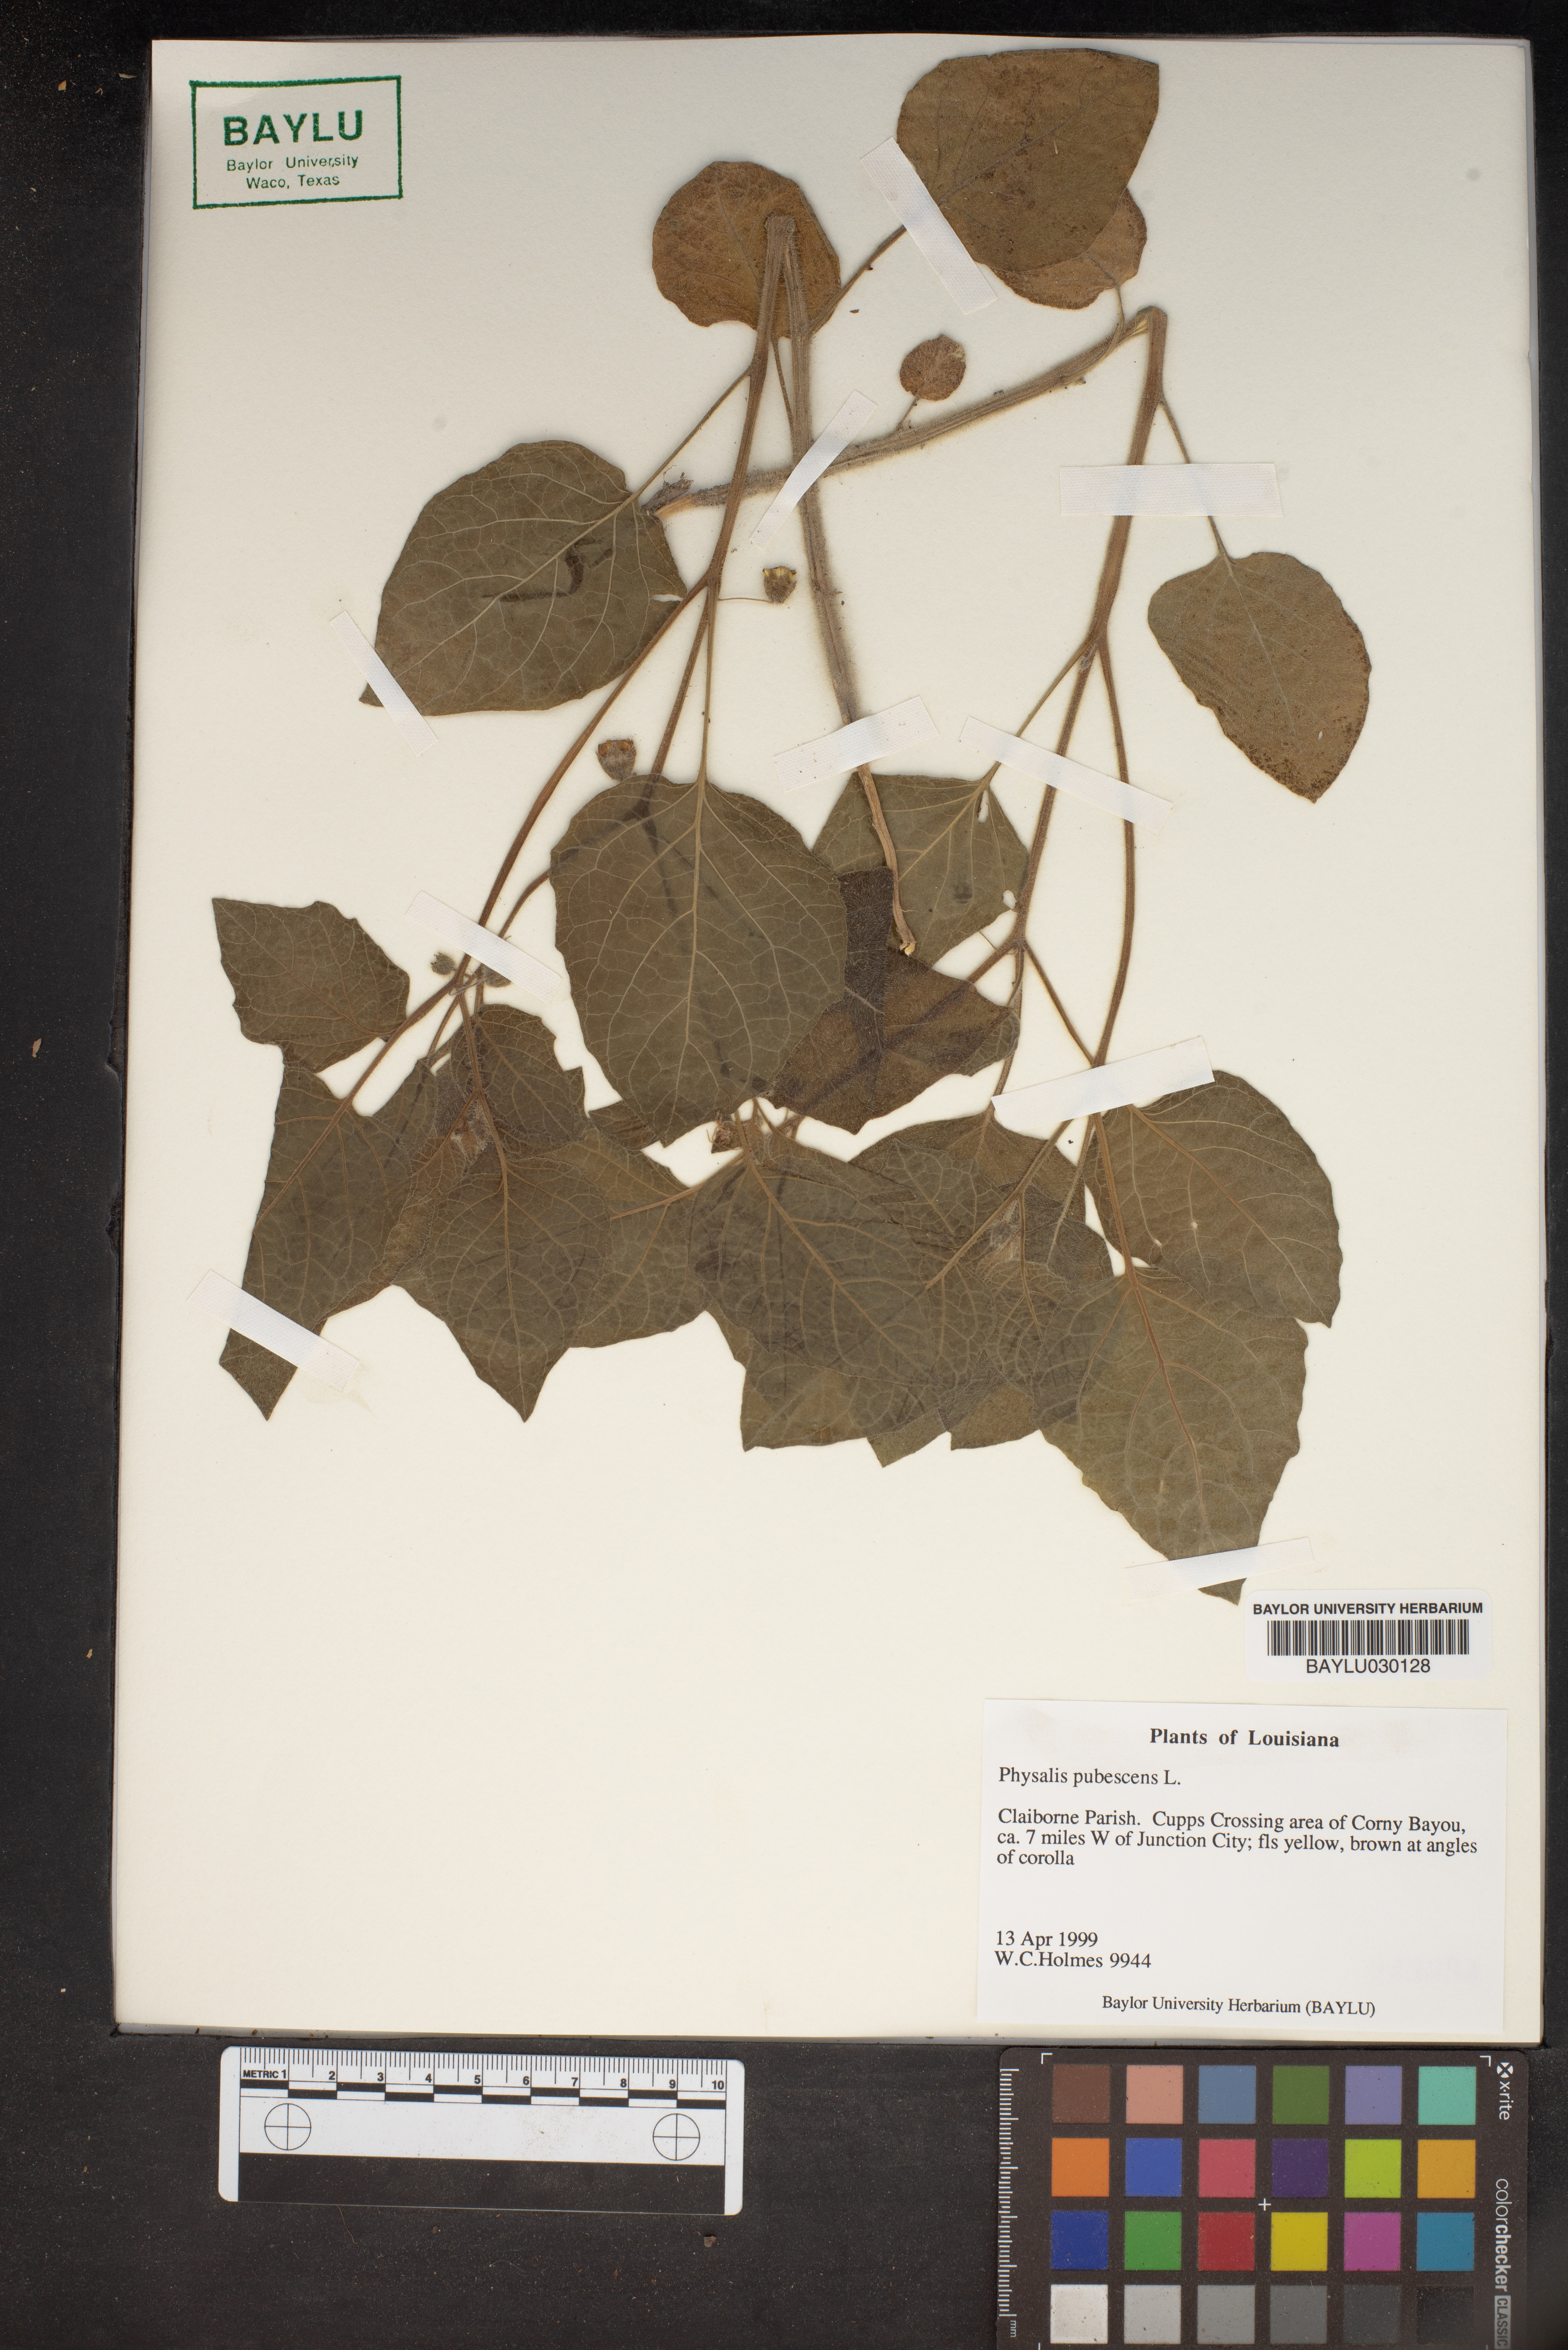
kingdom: Plantae
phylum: Tracheophyta
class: Magnoliopsida
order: Solanales
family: Solanaceae
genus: Physalis
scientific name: Physalis pubescens
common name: Downy ground-cherry
